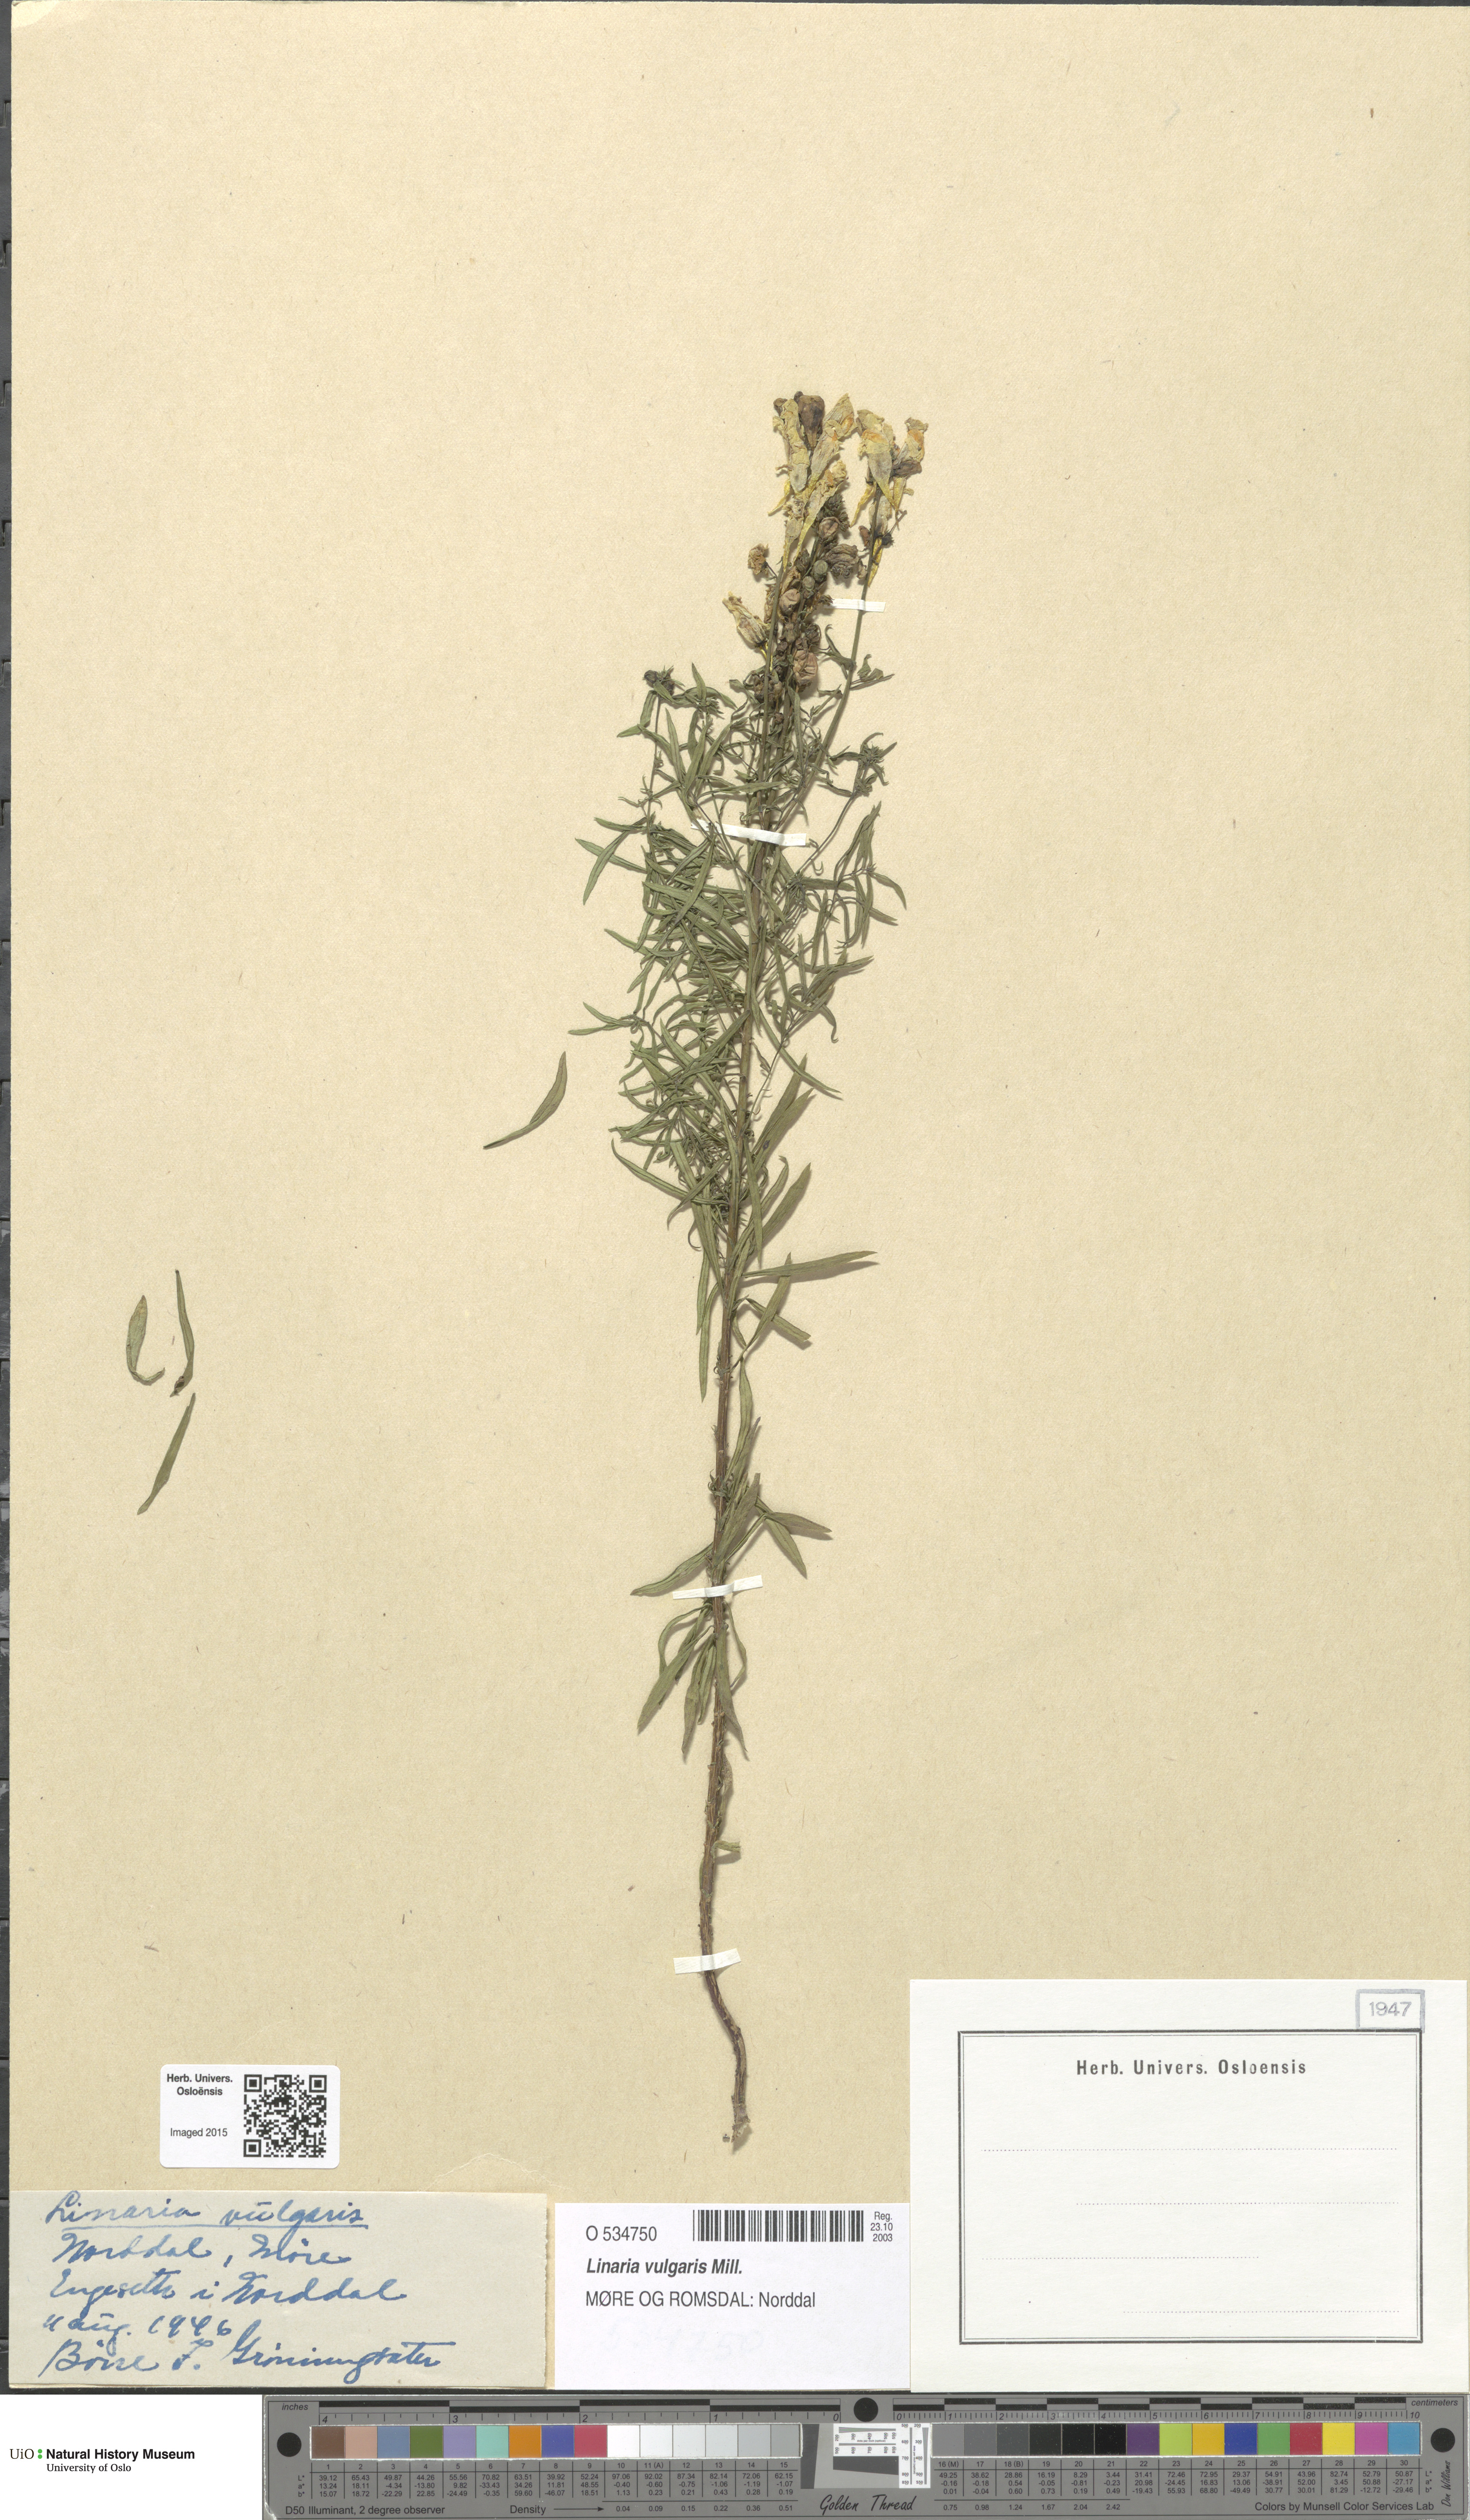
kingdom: Plantae
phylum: Tracheophyta
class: Magnoliopsida
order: Lamiales
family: Plantaginaceae
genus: Linaria
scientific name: Linaria vulgaris
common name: Butter and eggs
